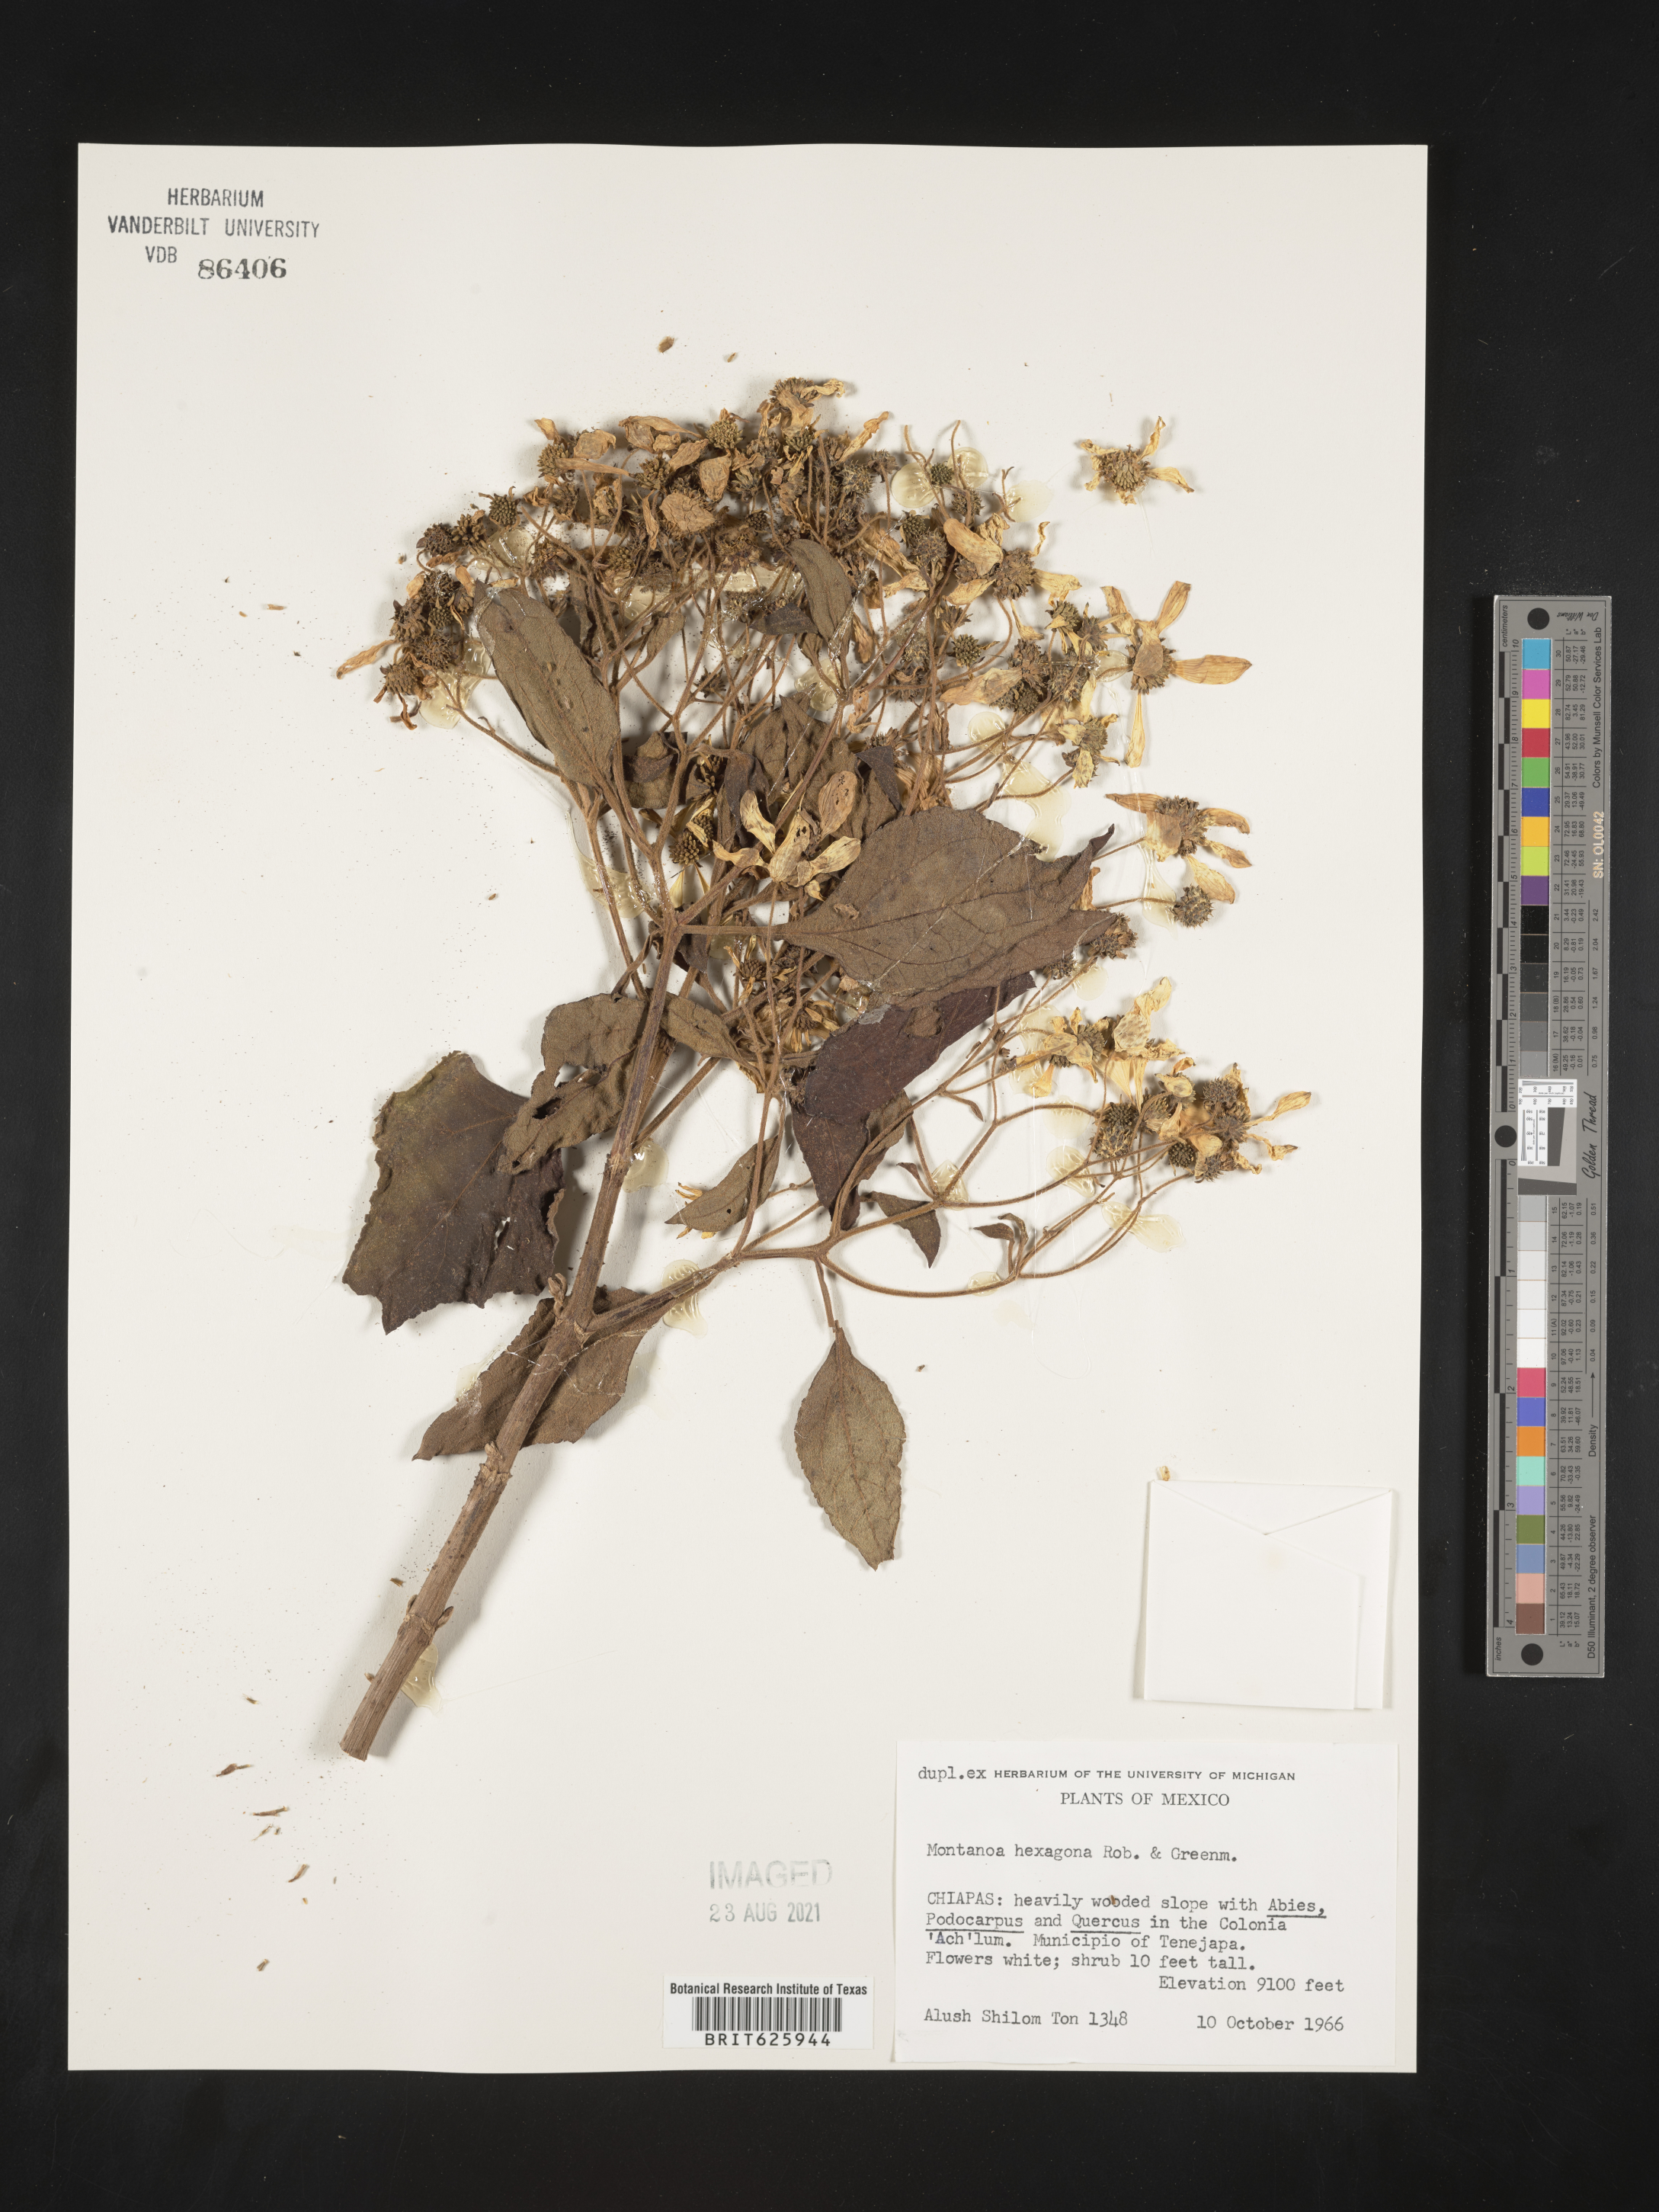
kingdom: Plantae
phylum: Tracheophyta
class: Magnoliopsida
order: Asterales
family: Asteraceae
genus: Montanoa
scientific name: Montanoa hexagona
